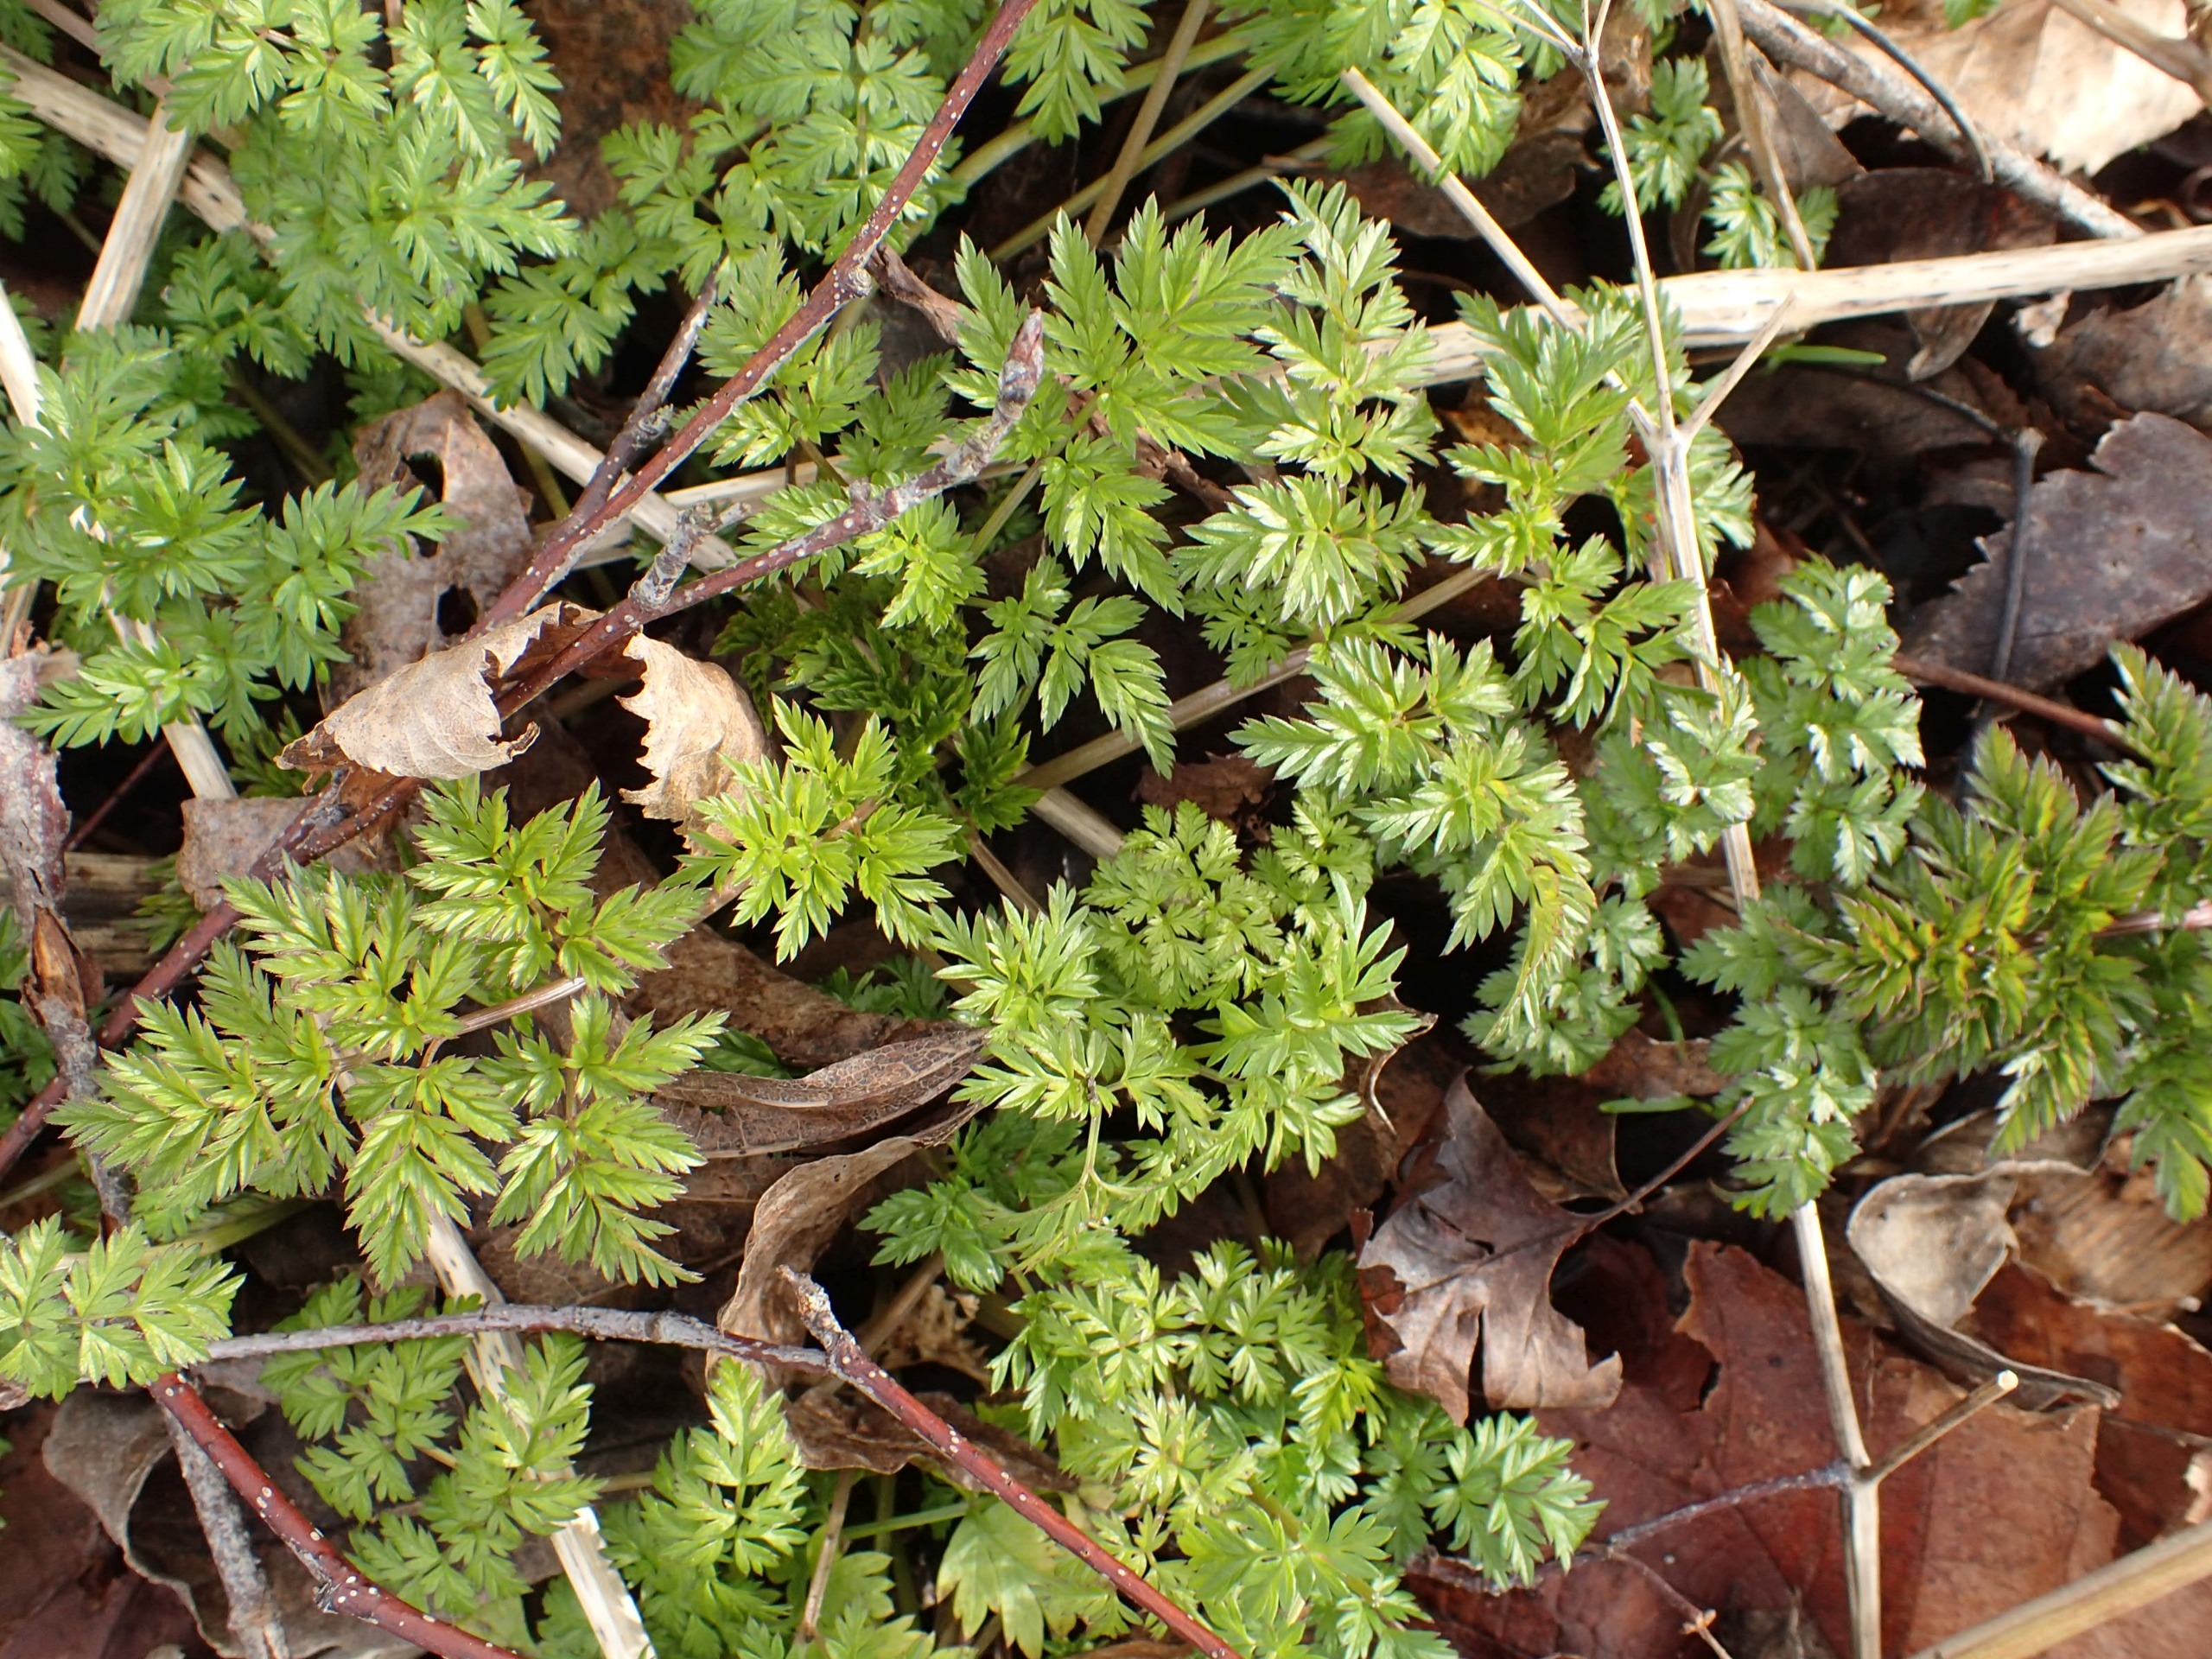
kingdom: Plantae
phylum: Tracheophyta
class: Magnoliopsida
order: Apiales
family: Apiaceae
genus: Anthriscus
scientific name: Anthriscus sylvestris
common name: Vild kørvel
